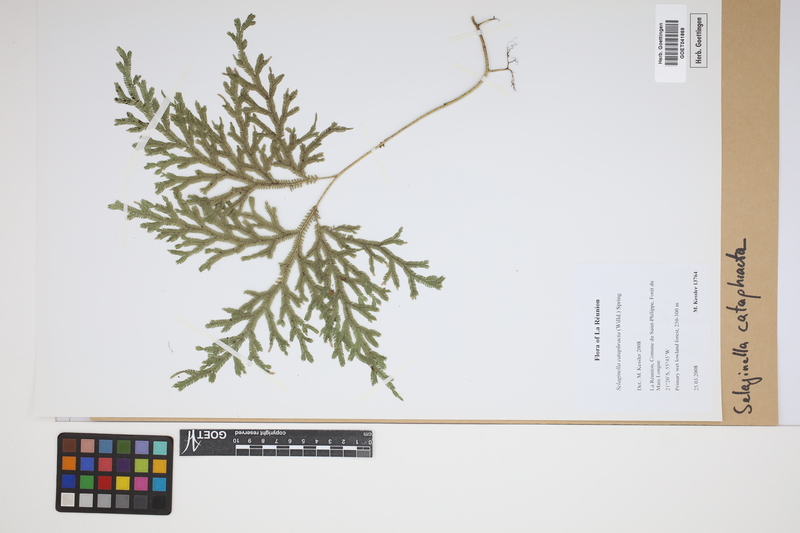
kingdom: Plantae
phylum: Tracheophyta
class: Lycopodiopsida
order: Selaginellales
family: Selaginellaceae
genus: Selaginella
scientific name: Selaginella cataphracta
